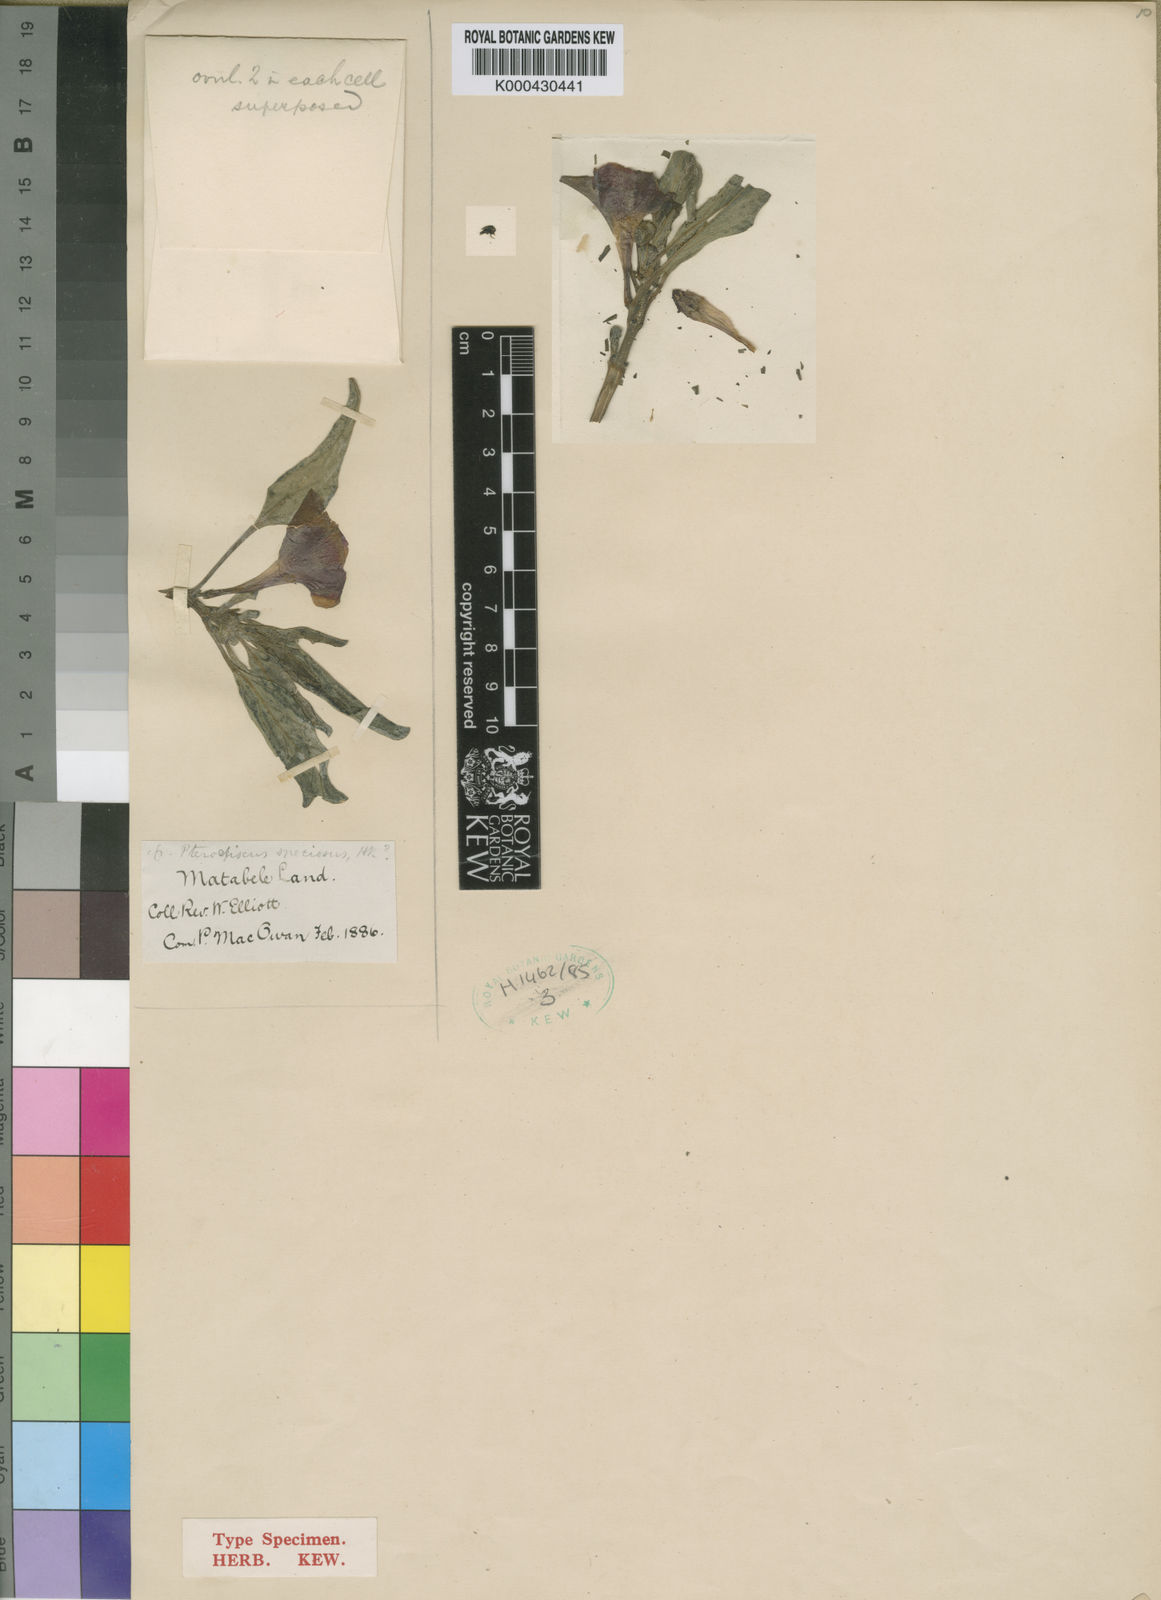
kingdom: Plantae
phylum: Tracheophyta
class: Magnoliopsida
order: Lamiales
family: Pedaliaceae
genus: Pterodiscus
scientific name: Pterodiscus elliottii
